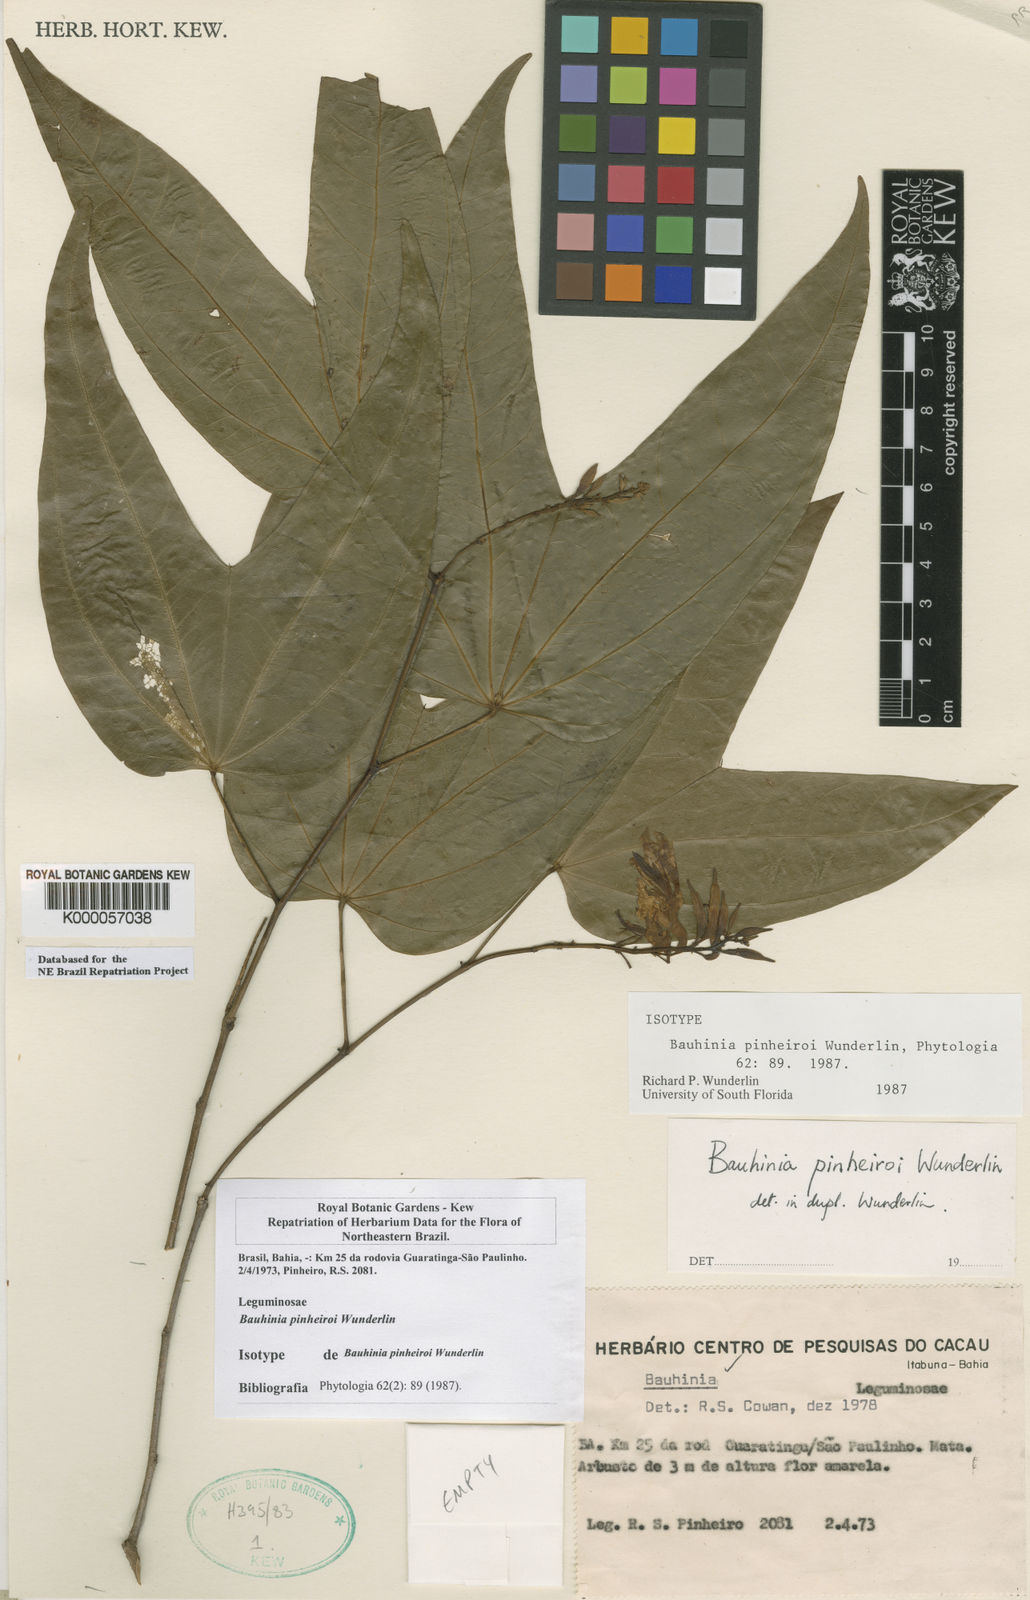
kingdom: Plantae
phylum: Tracheophyta
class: Magnoliopsida
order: Fabales
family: Fabaceae
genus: Bauhinia
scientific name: Bauhinia pinheiroi
